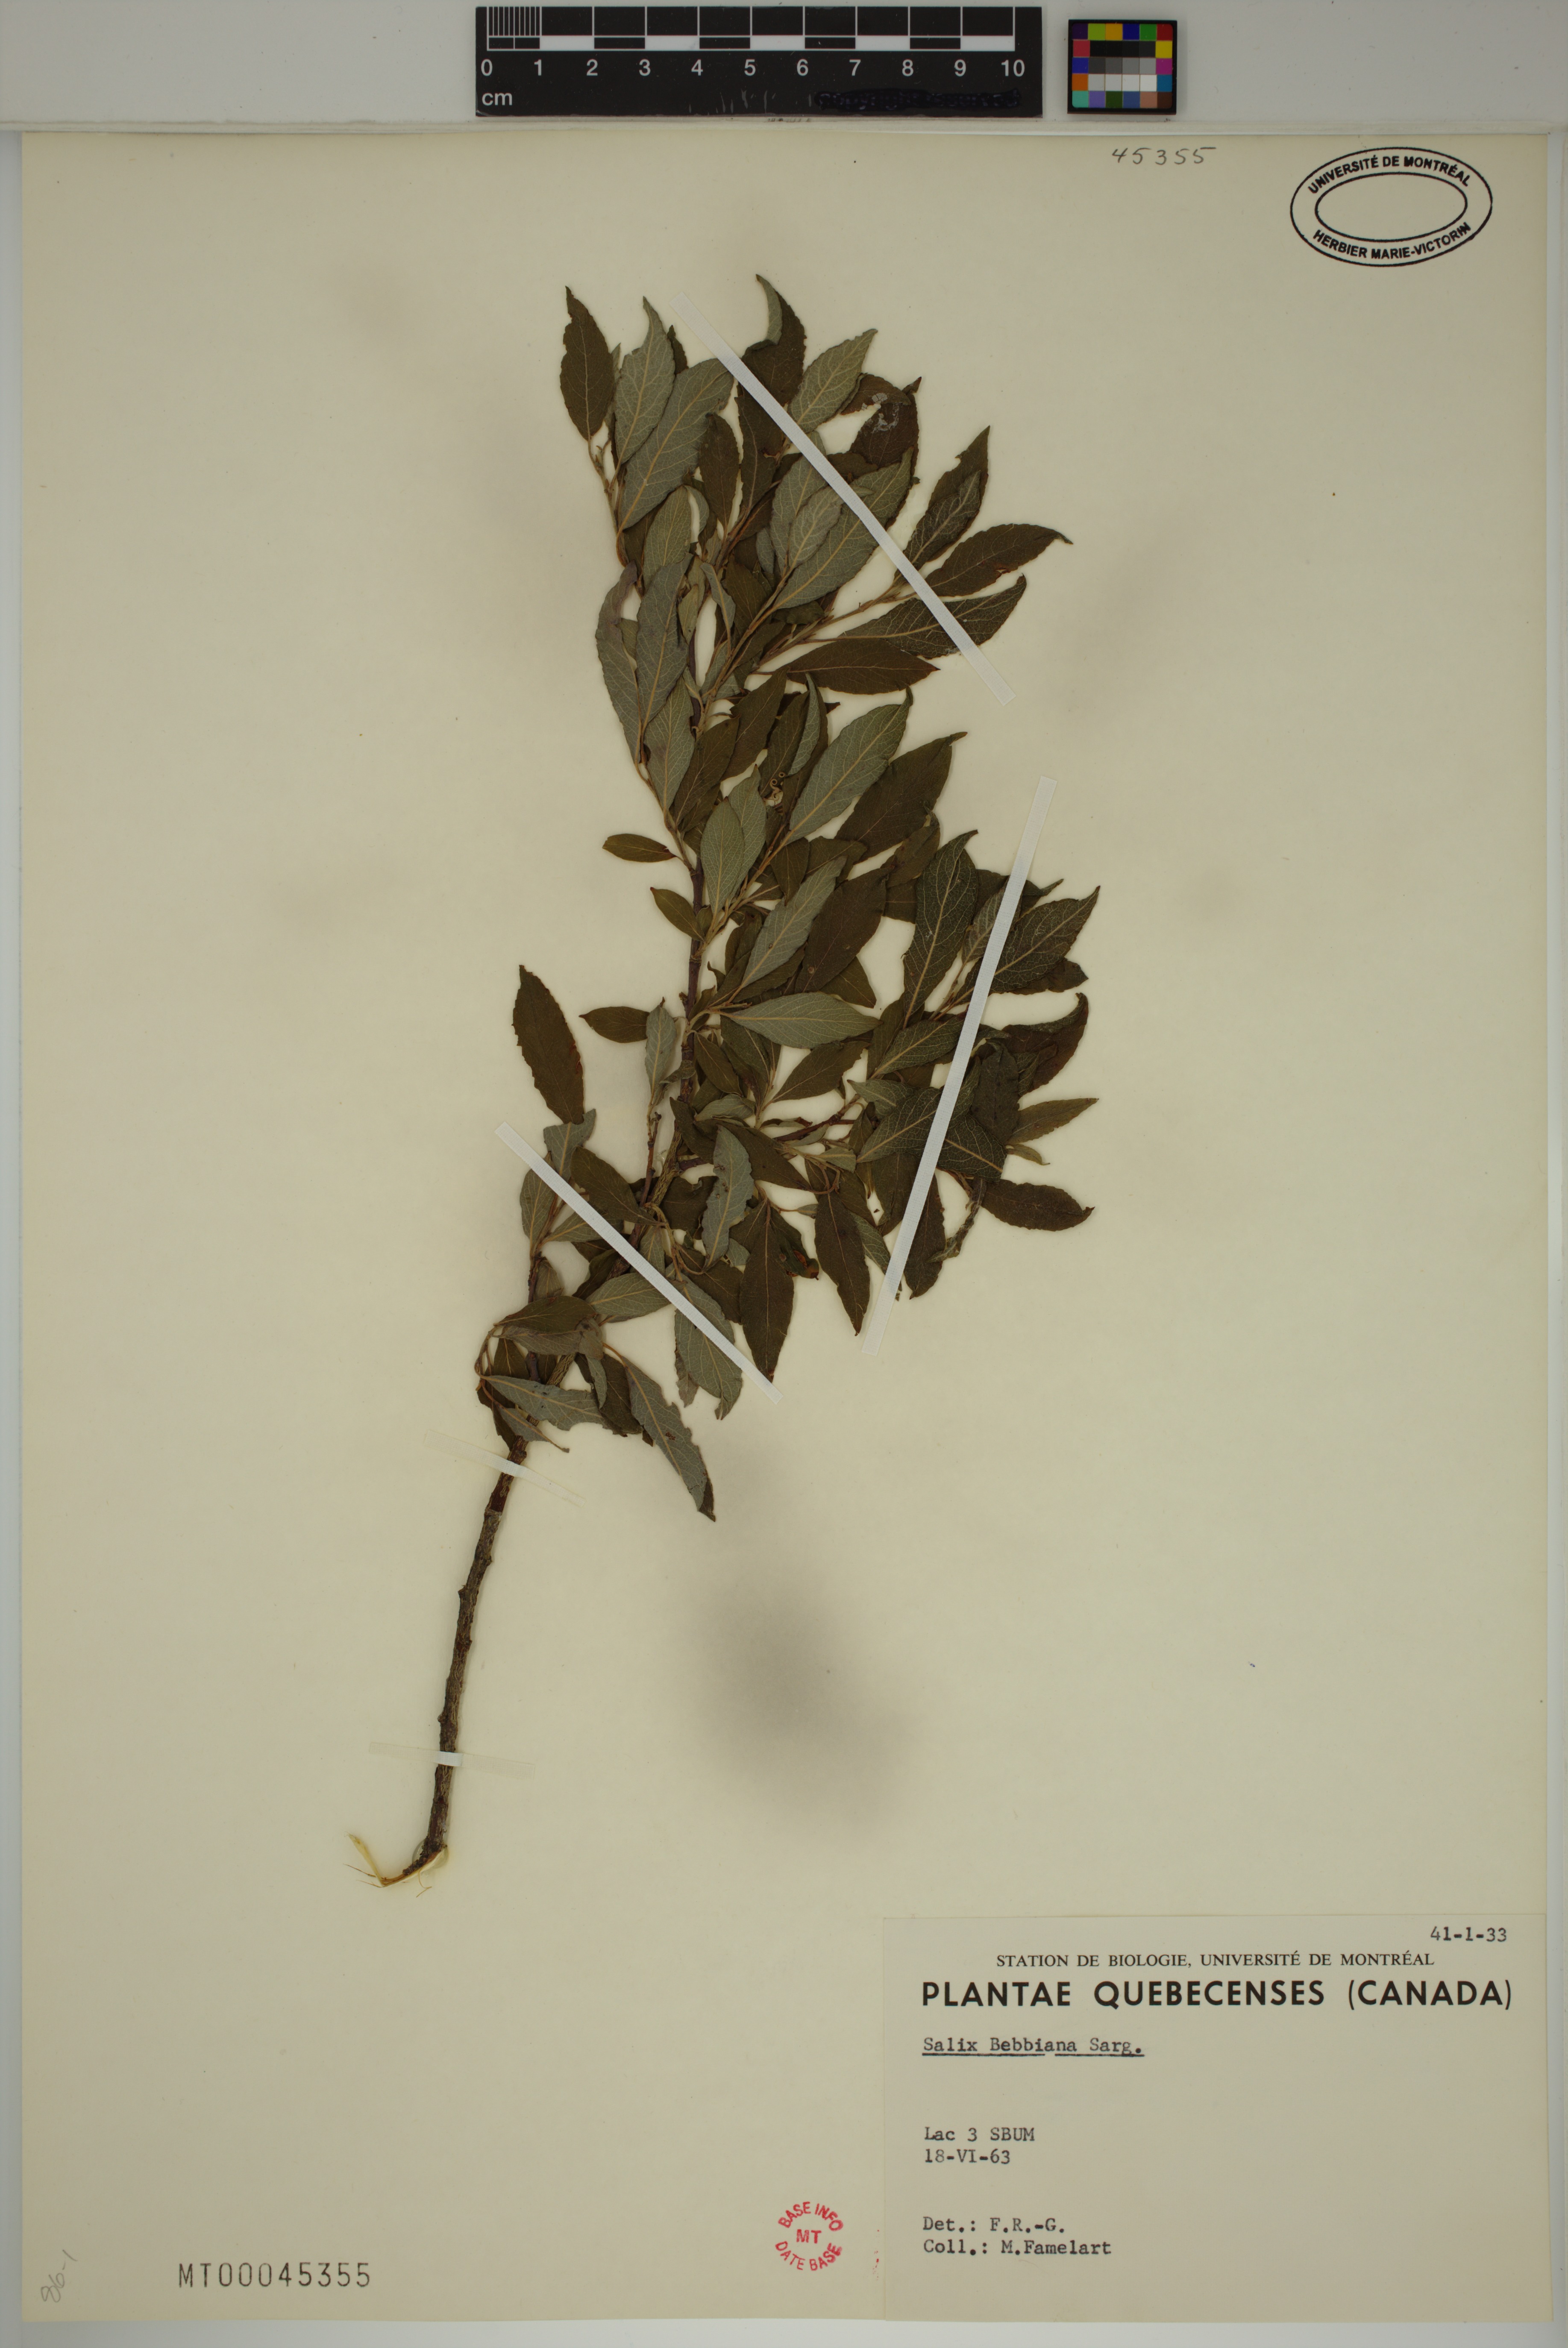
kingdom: Plantae
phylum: Tracheophyta
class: Magnoliopsida
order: Malpighiales
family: Salicaceae
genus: Salix
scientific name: Salix bebbiana
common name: Bebb's willow
